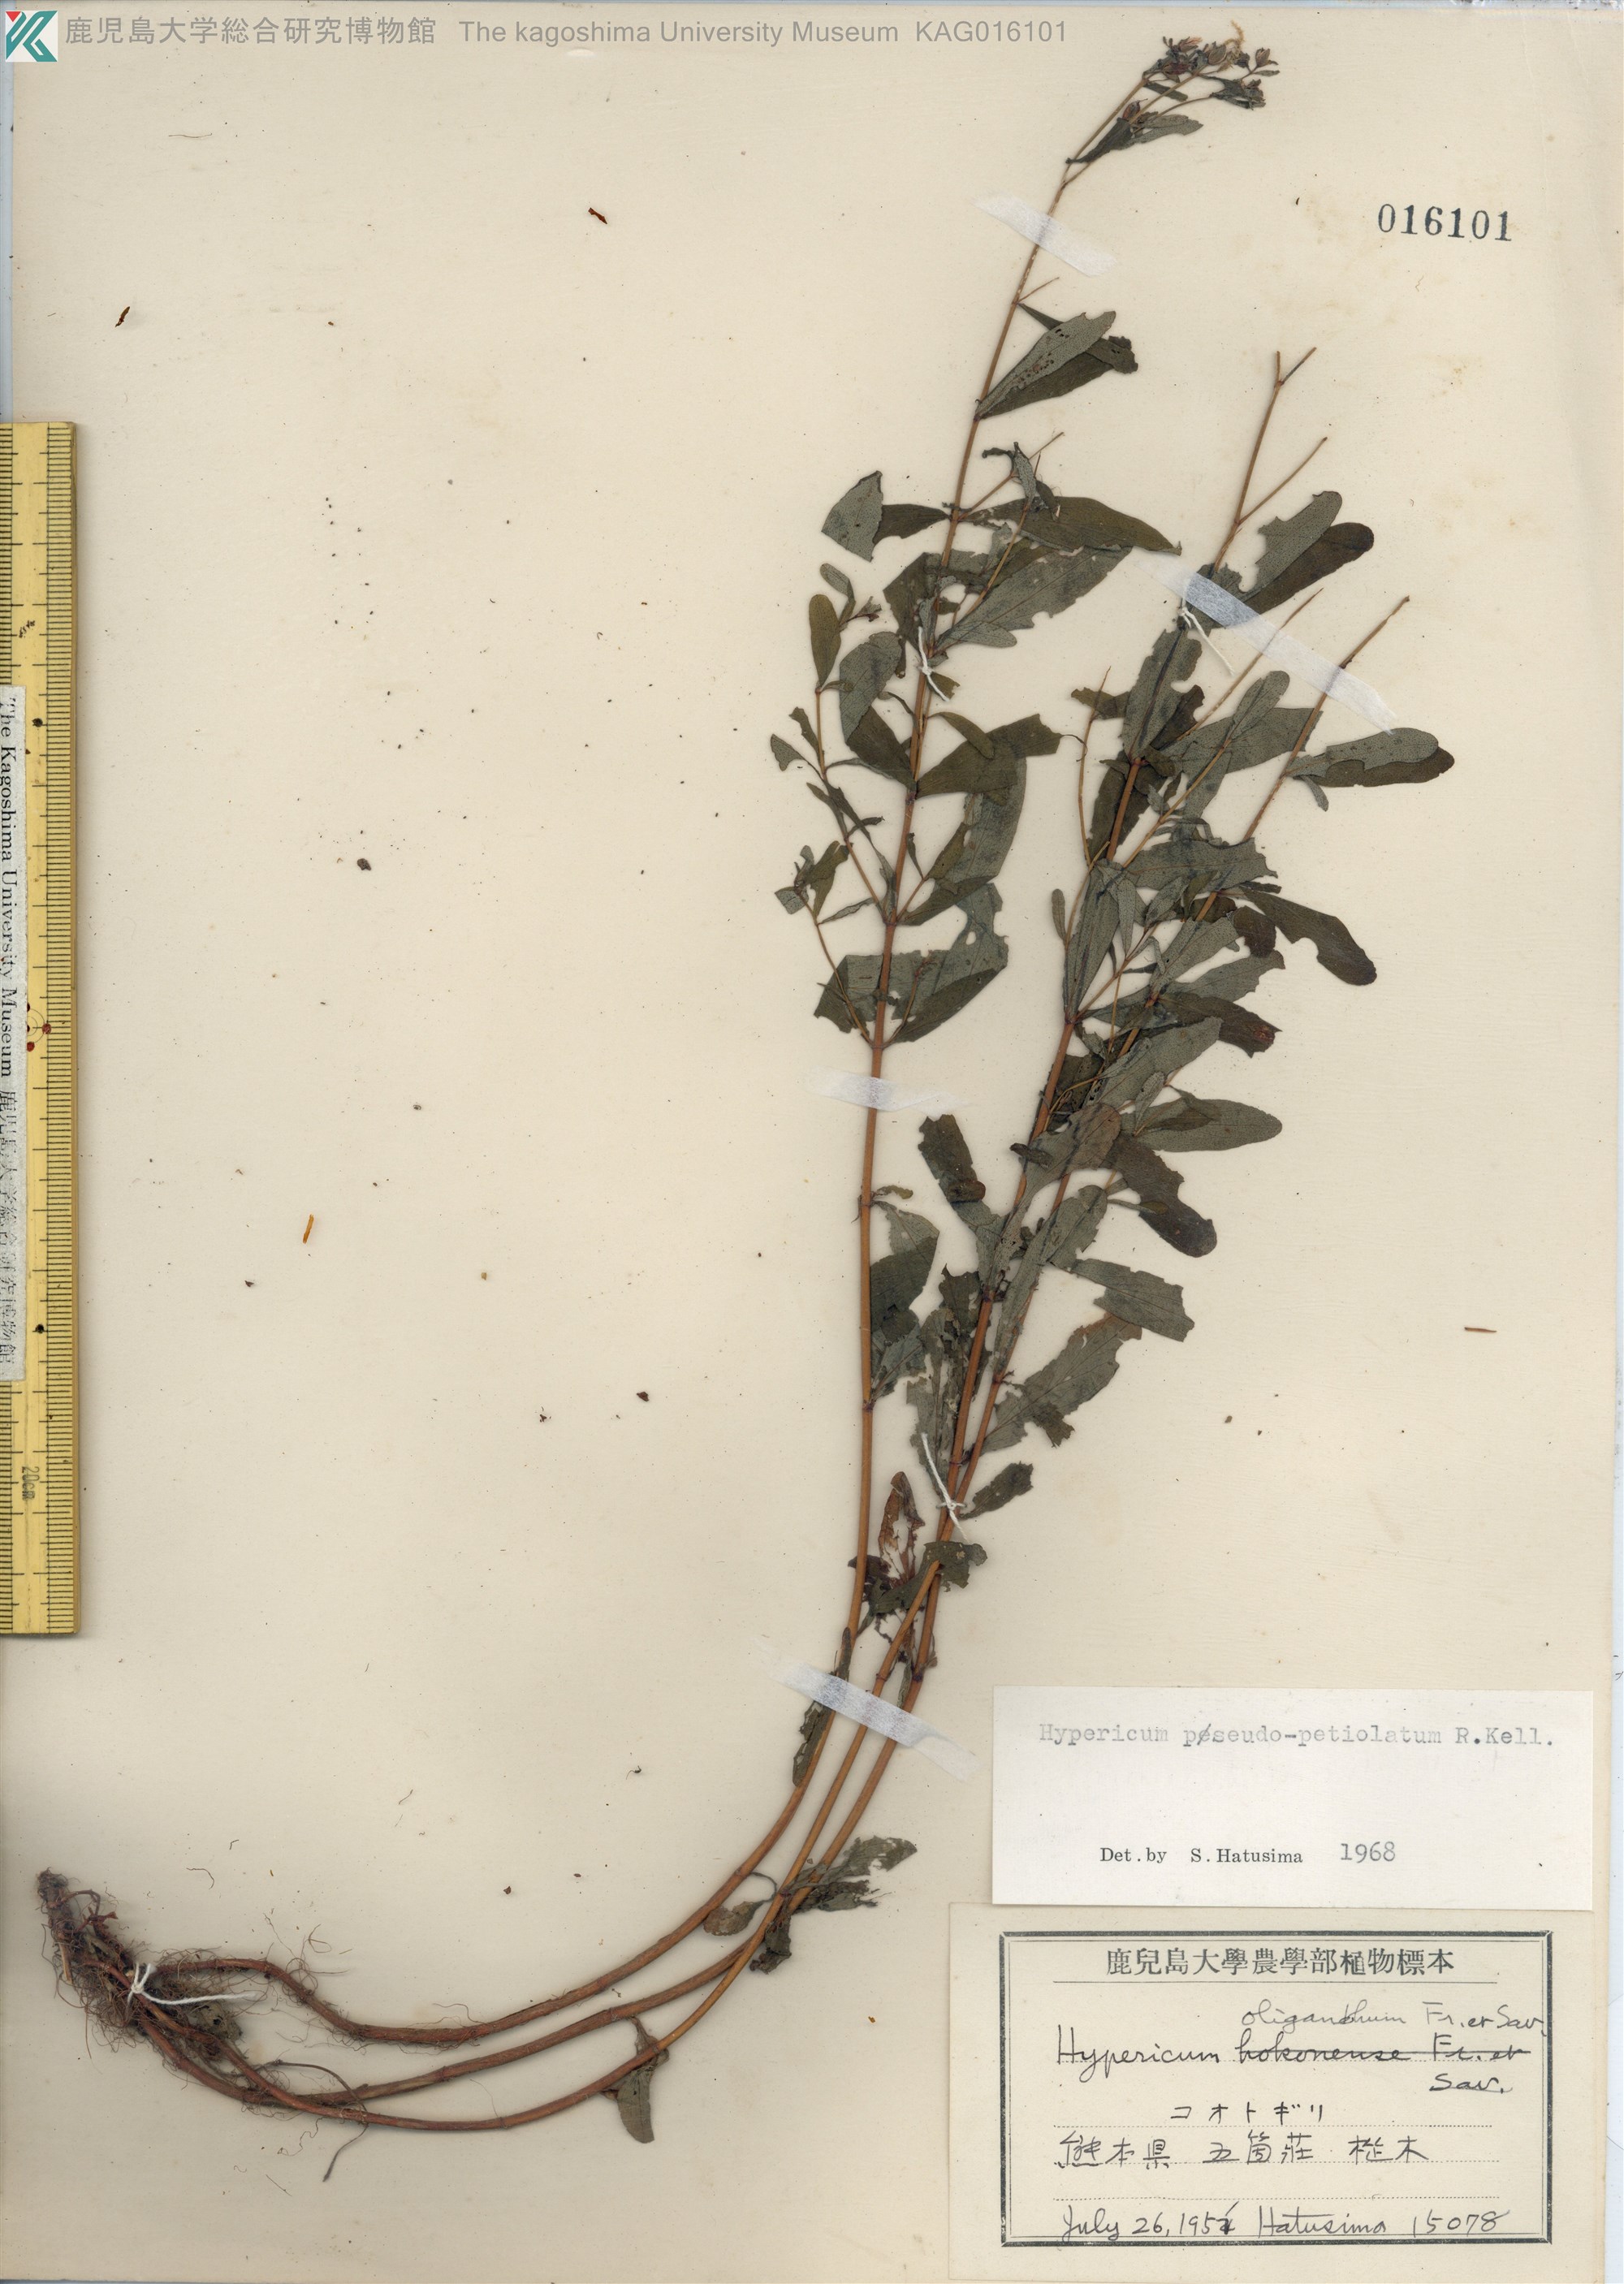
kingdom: Plantae
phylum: Tracheophyta
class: Magnoliopsida
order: Malpighiales
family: Hypericaceae
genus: Hypericum
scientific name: Hypericum pseudopetiolatum
